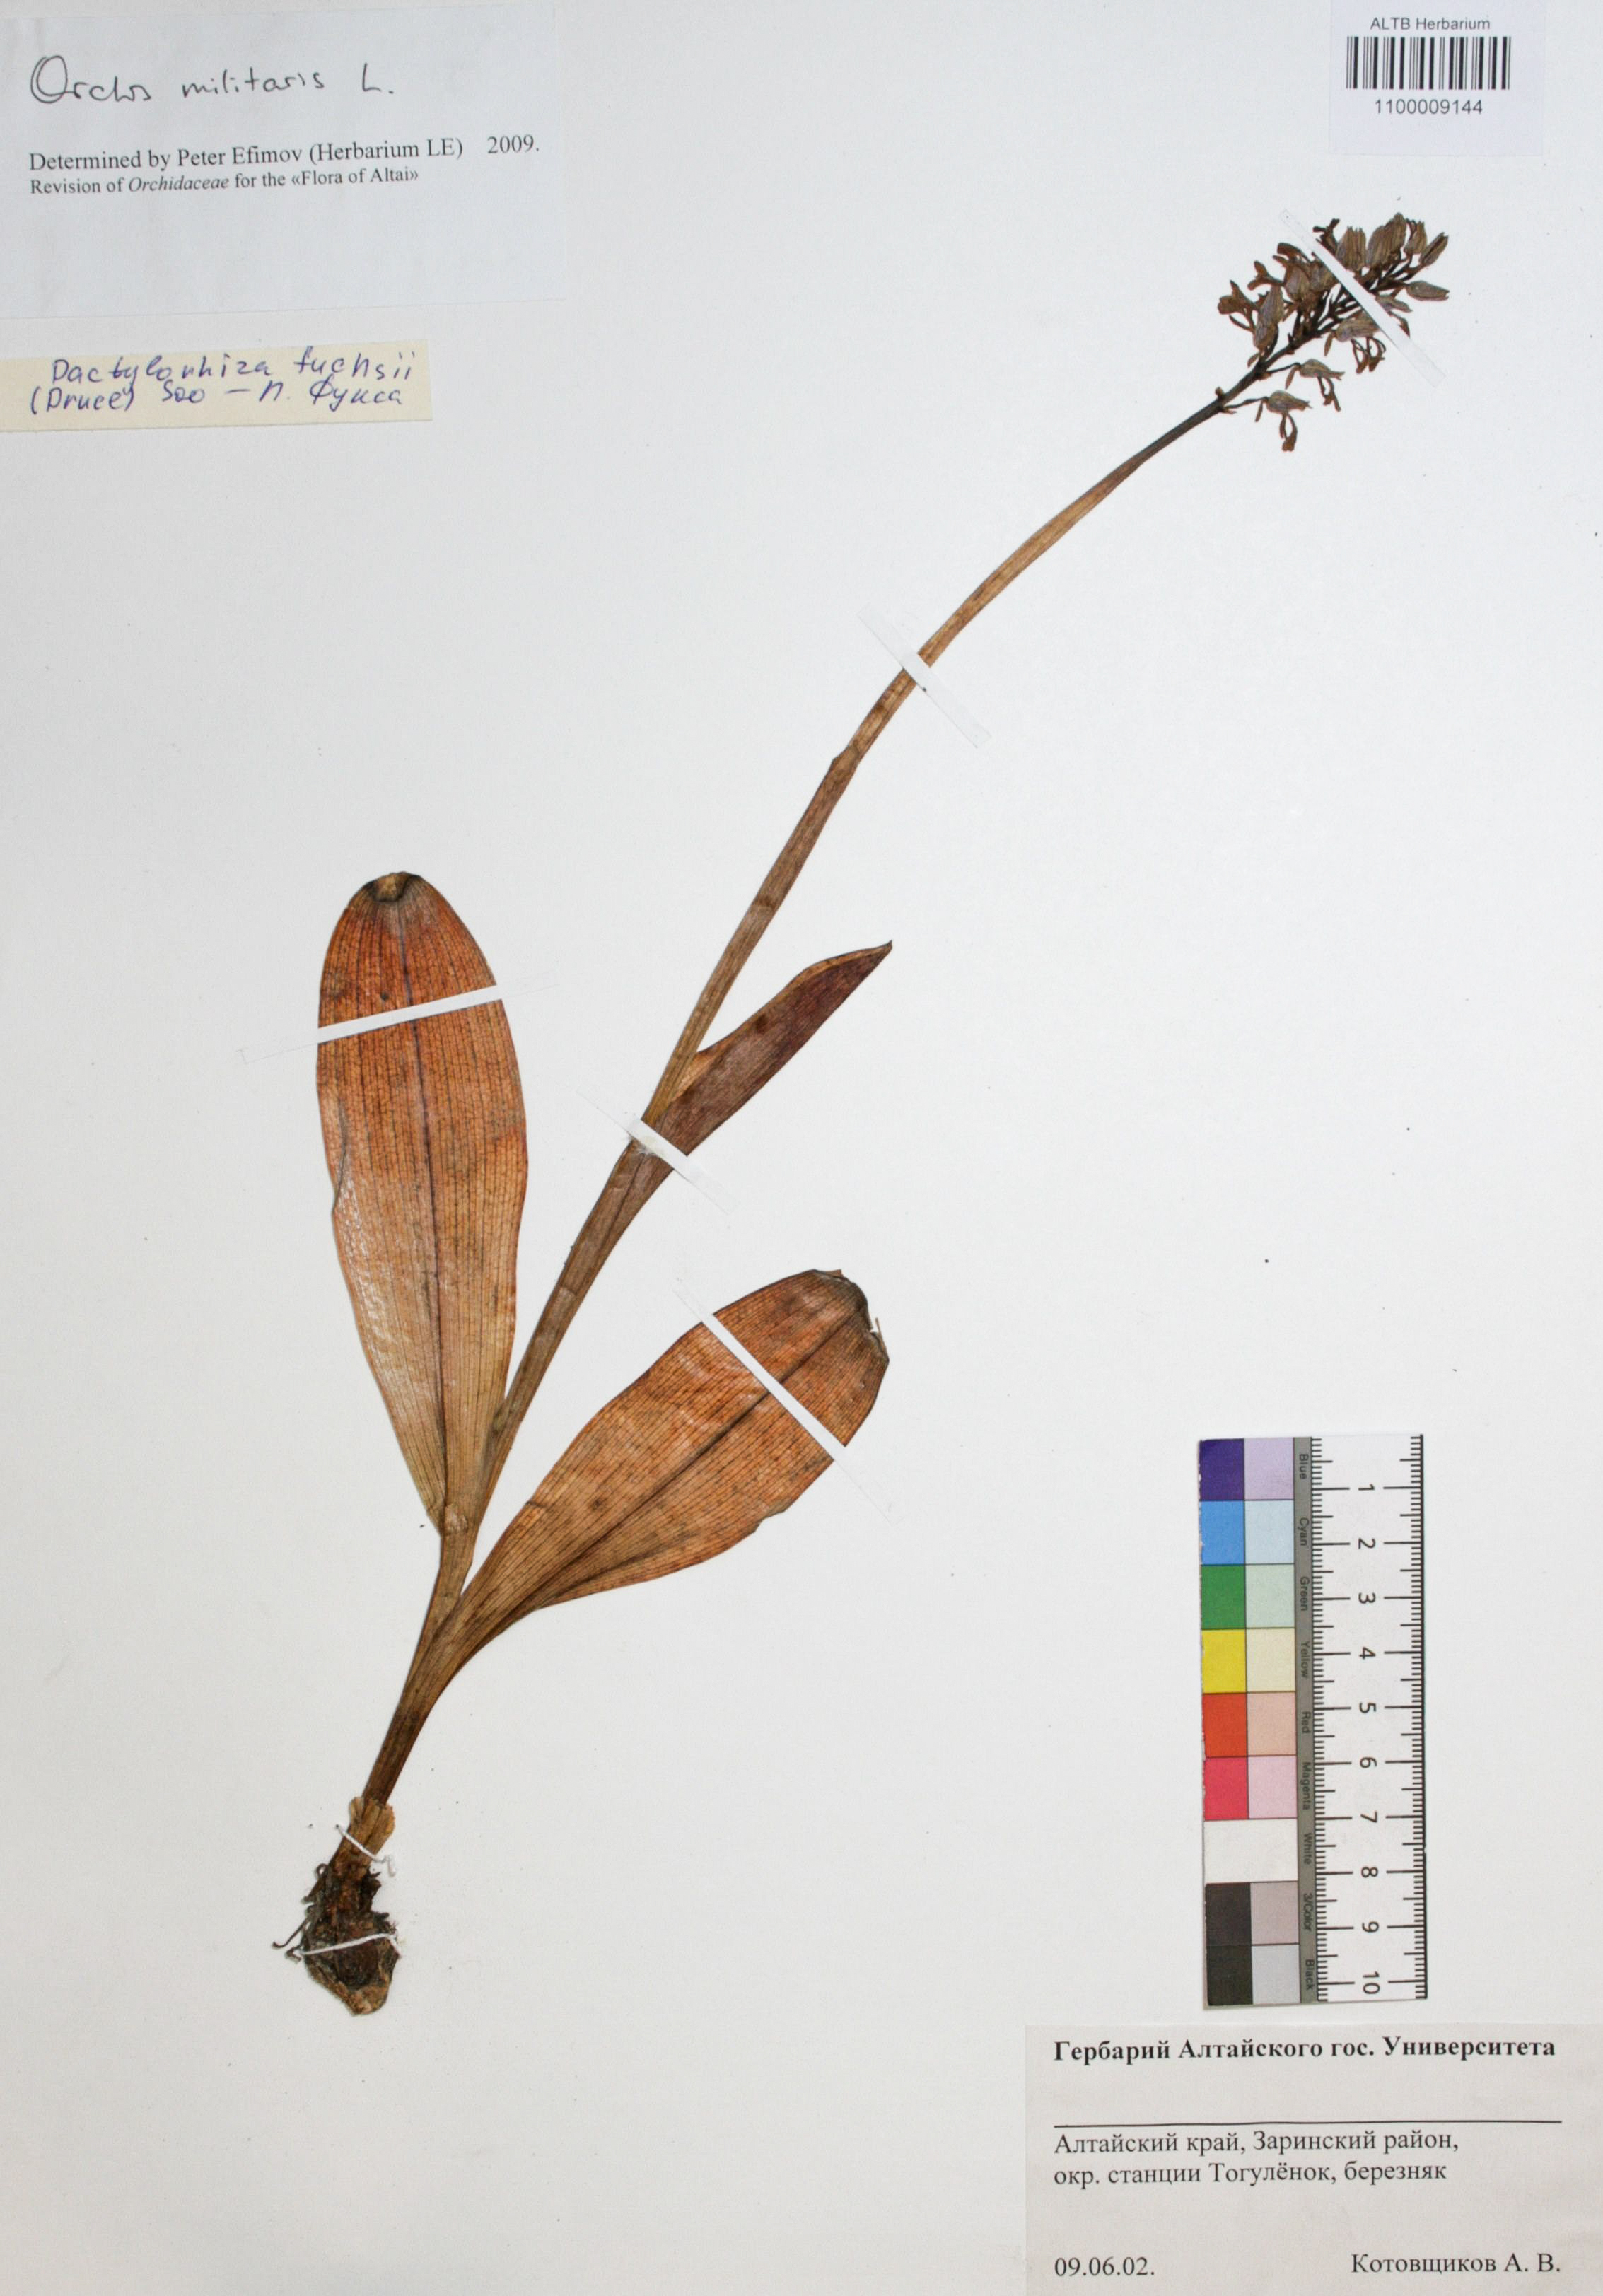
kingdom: Plantae
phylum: Tracheophyta
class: Liliopsida
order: Asparagales
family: Orchidaceae
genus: Orchis
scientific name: Orchis militaris
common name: Military orchid
